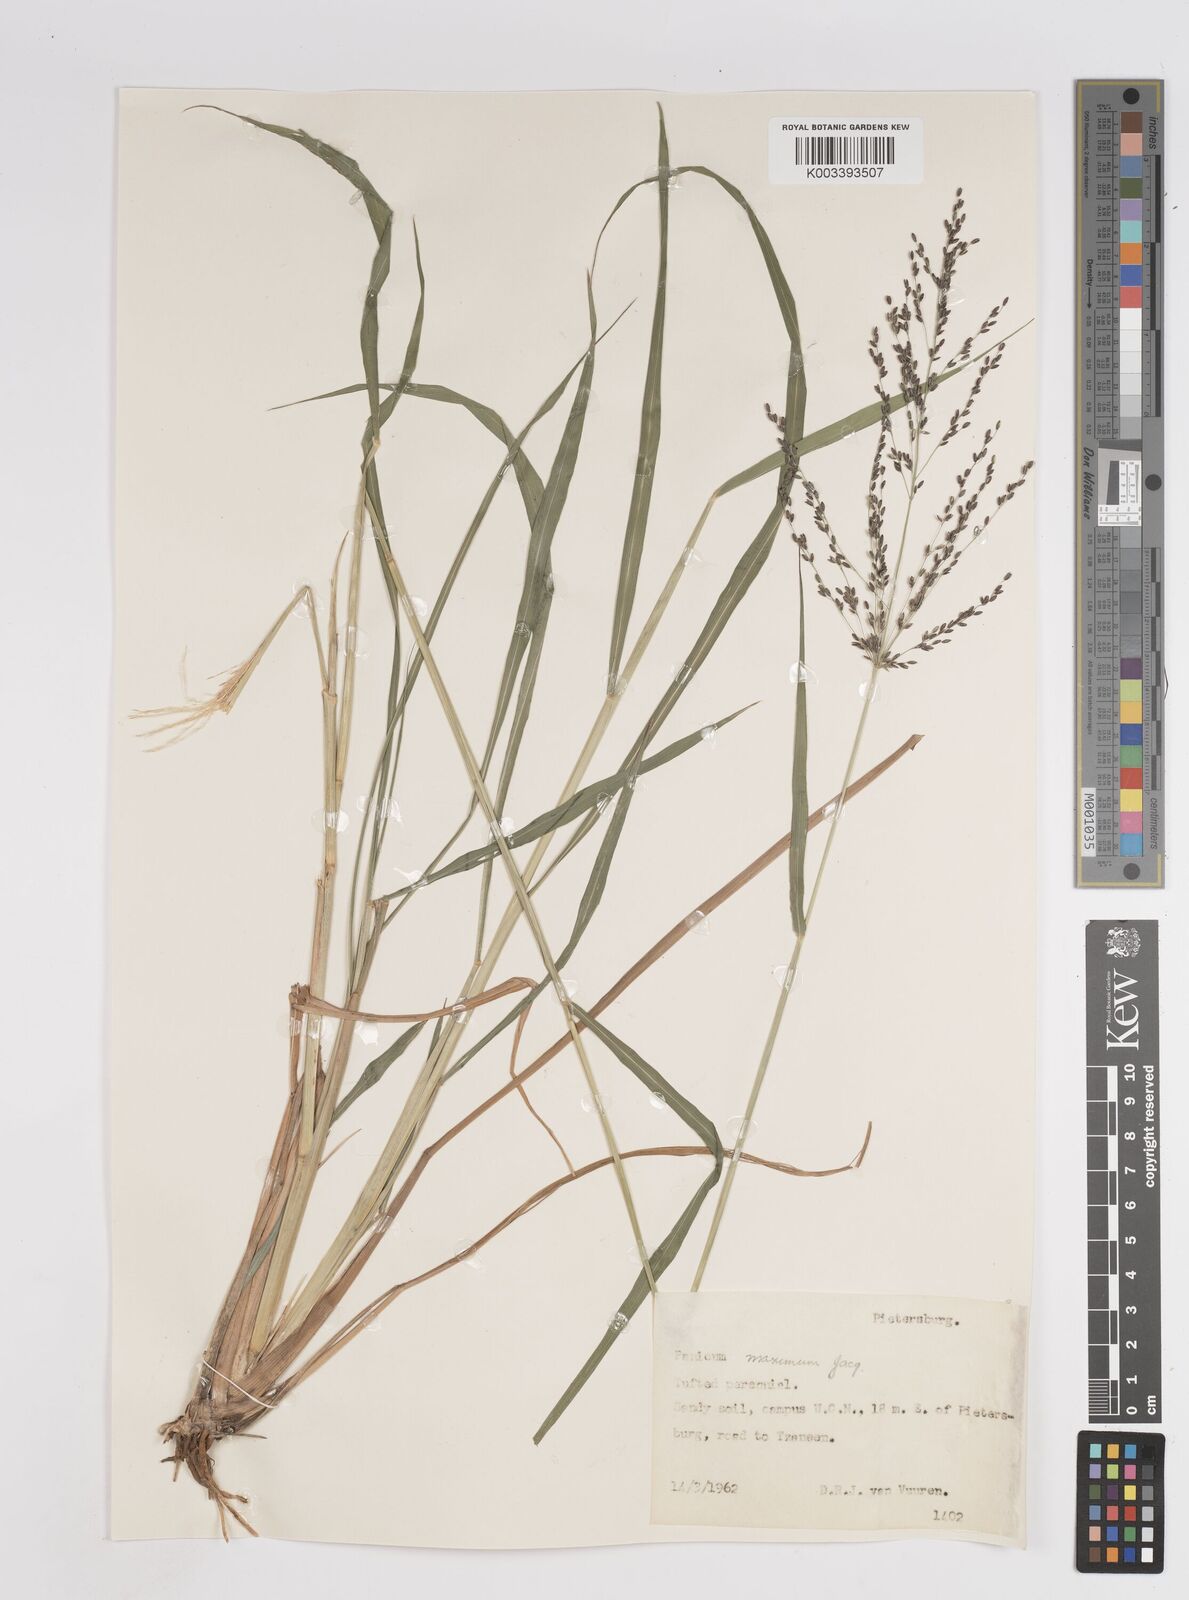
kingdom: Plantae
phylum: Tracheophyta
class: Liliopsida
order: Poales
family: Poaceae
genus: Megathyrsus
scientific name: Megathyrsus maximus
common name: Guineagrass
